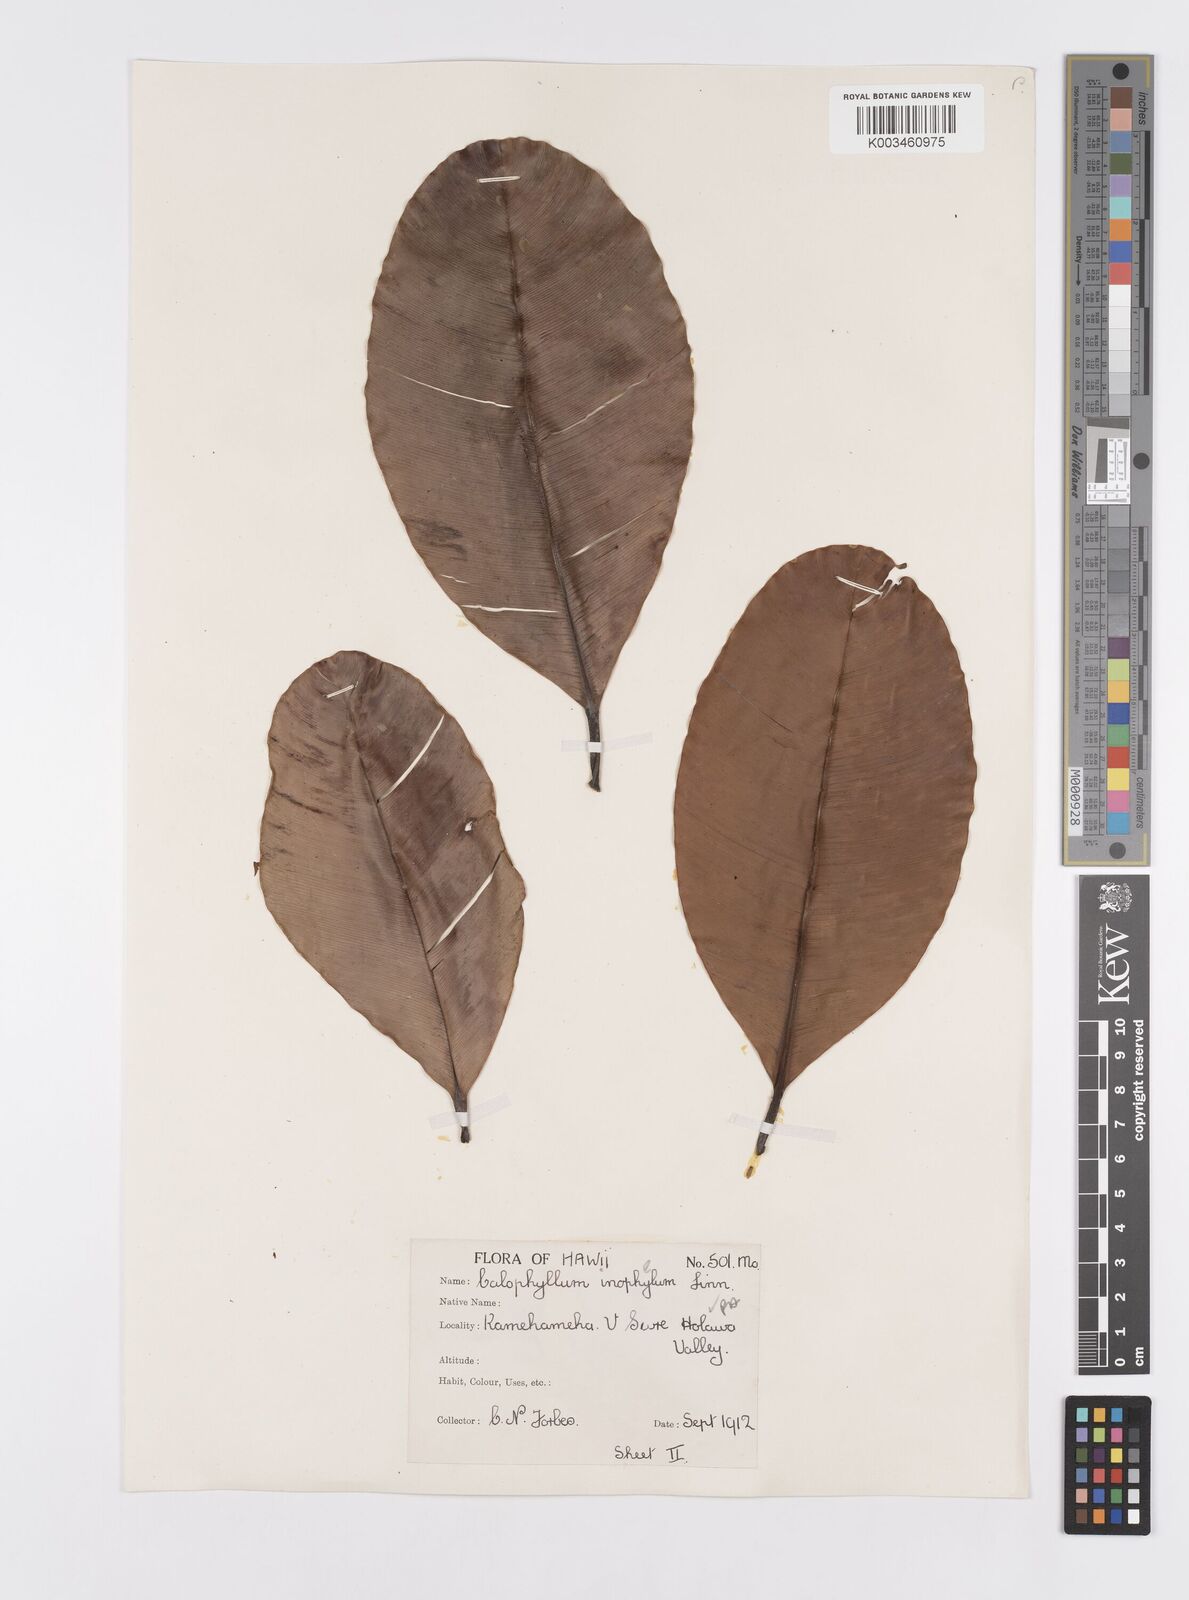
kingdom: Plantae
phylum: Tracheophyta
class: Magnoliopsida
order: Malpighiales
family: Calophyllaceae
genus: Calophyllum
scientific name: Calophyllum inophyllum
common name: Alexandrian laurel
